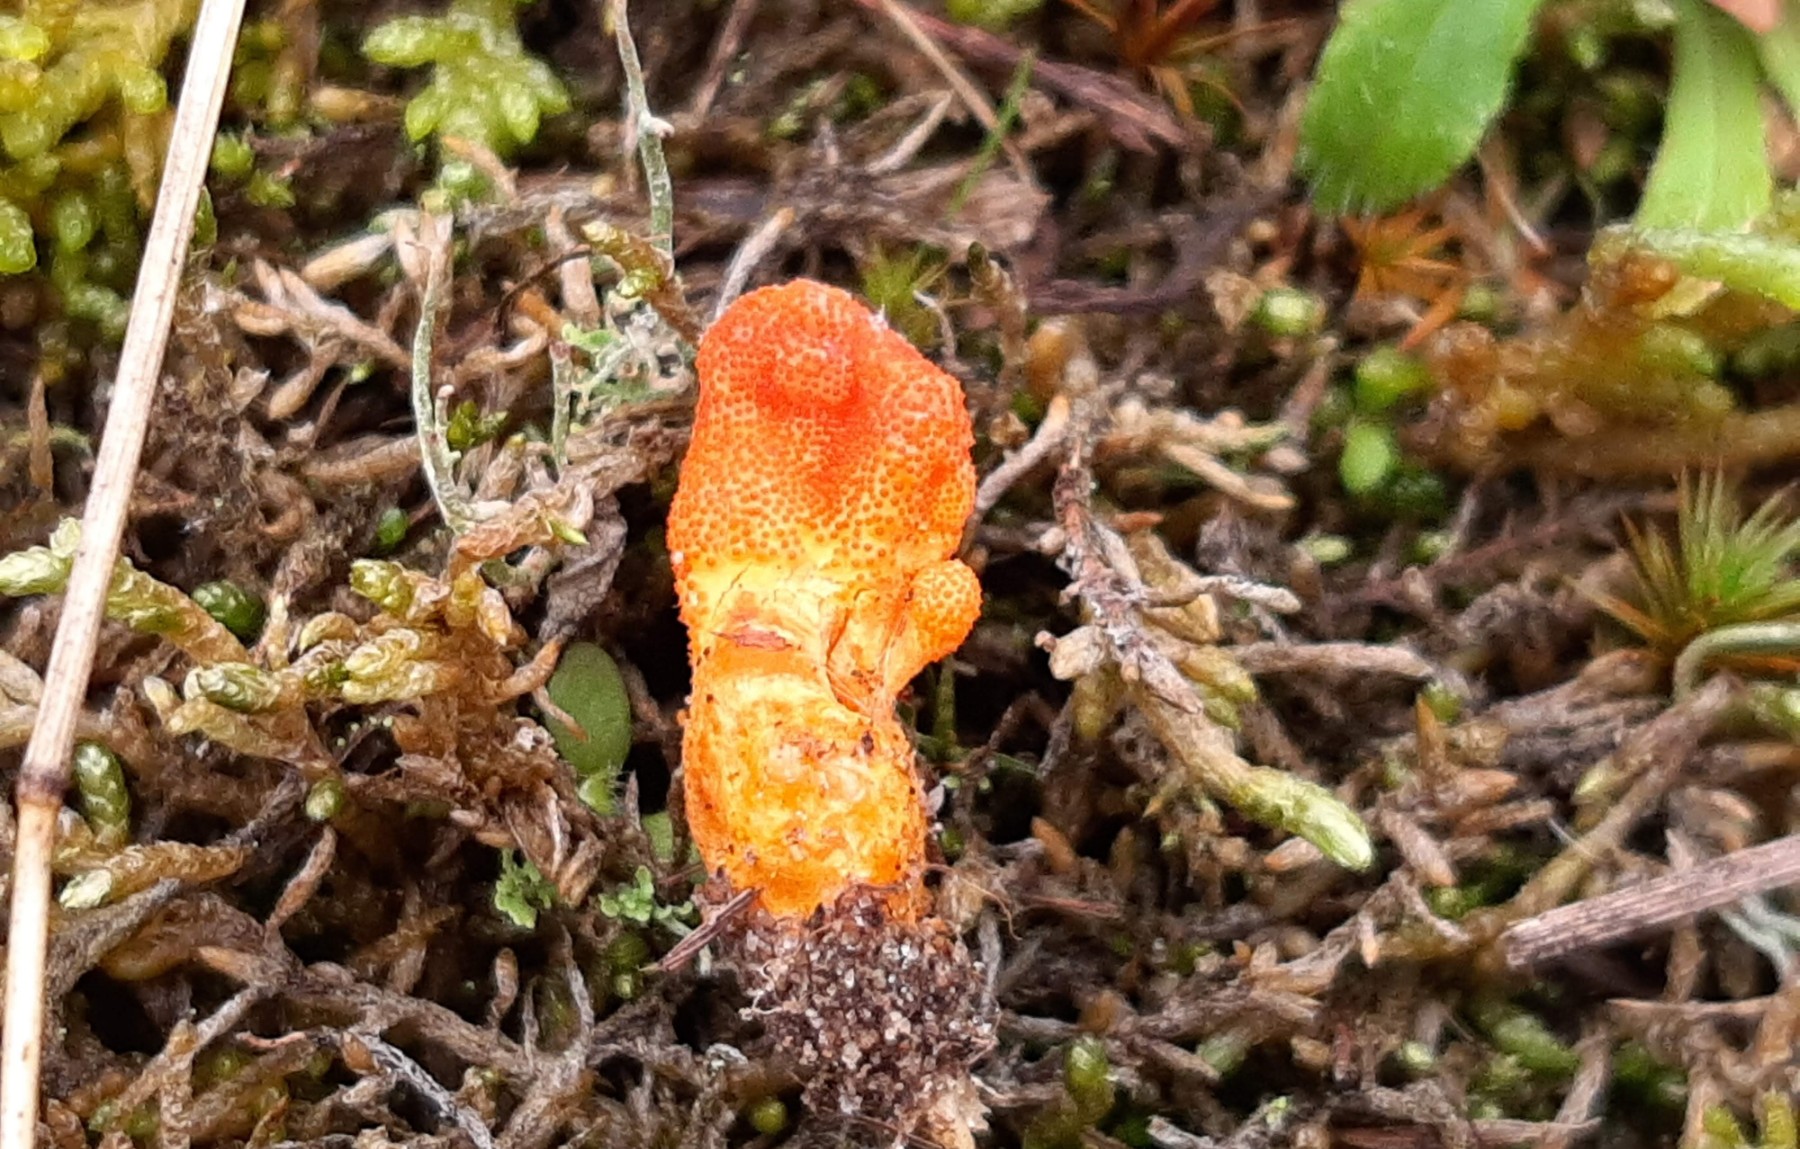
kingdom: Fungi
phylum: Ascomycota
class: Sordariomycetes
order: Hypocreales
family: Cordycipitaceae
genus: Cordyceps
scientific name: Cordyceps militaris
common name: puppe-snyltekølle
